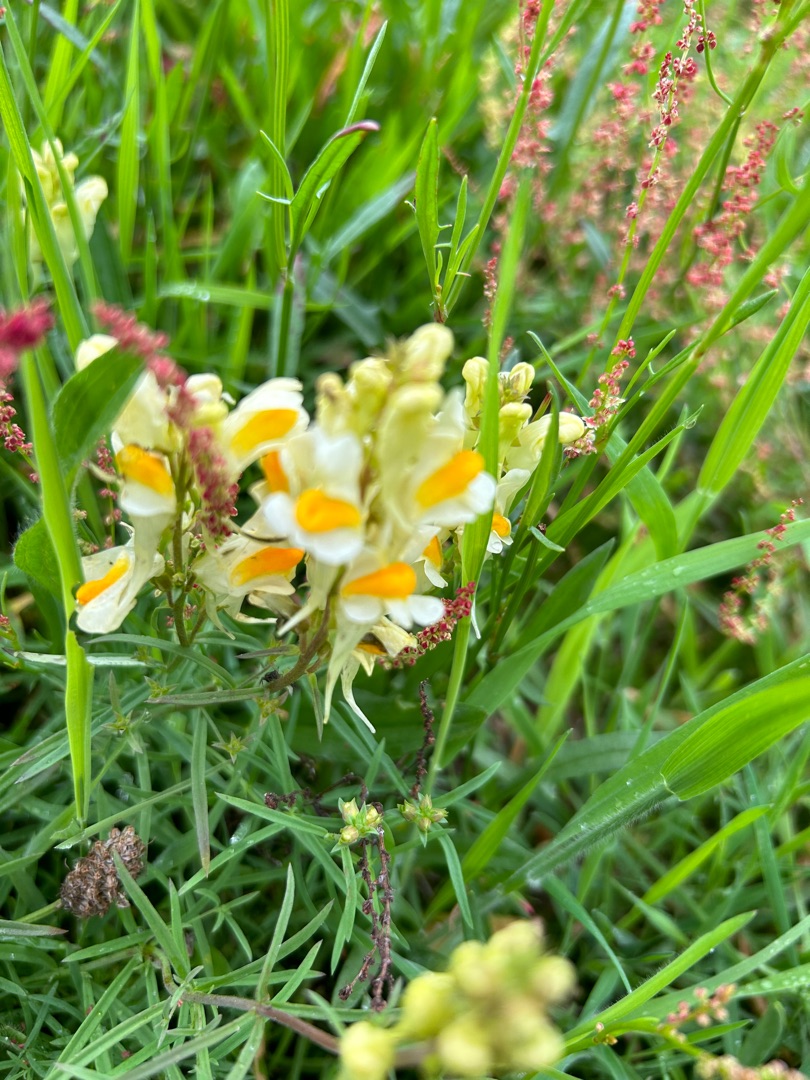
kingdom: Plantae
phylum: Tracheophyta
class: Magnoliopsida
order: Lamiales
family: Plantaginaceae
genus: Linaria
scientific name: Linaria vulgaris
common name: Almindelig torskemund
